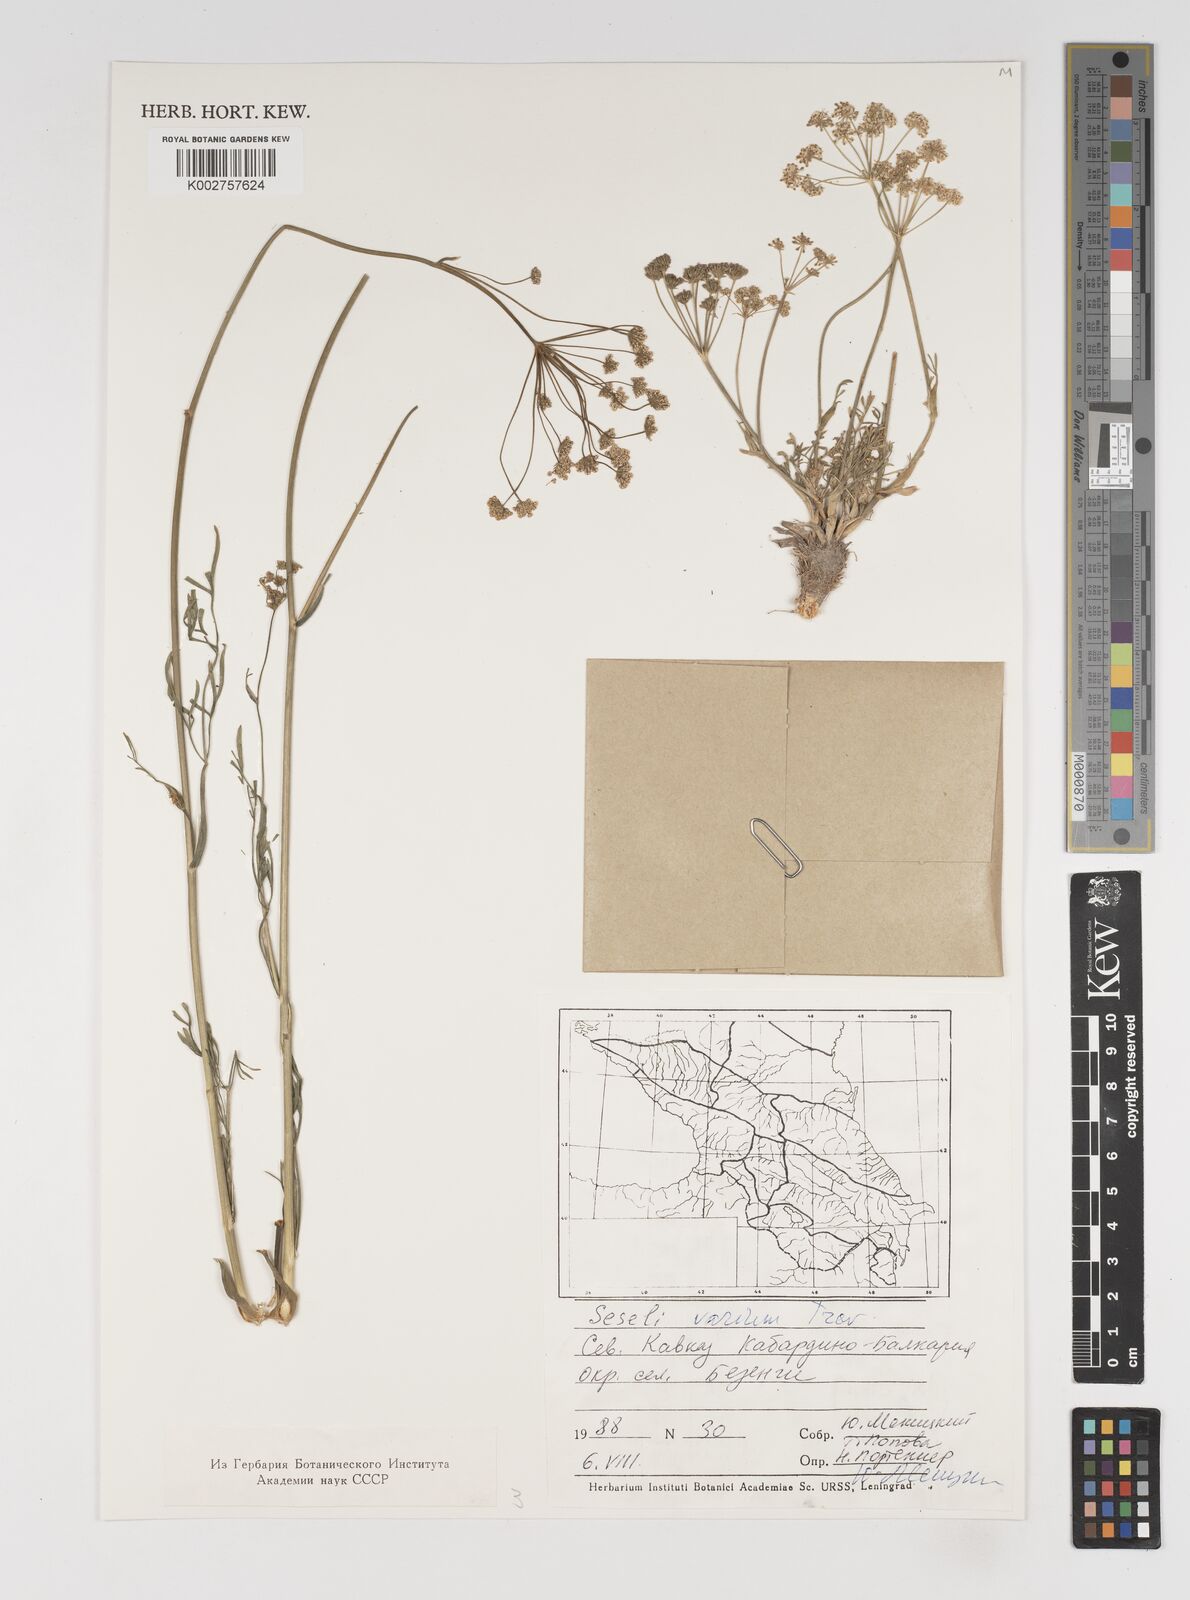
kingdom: Plantae
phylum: Tracheophyta
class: Magnoliopsida
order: Apiales
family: Apiaceae
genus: Seseli
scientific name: Seseli pallasii
